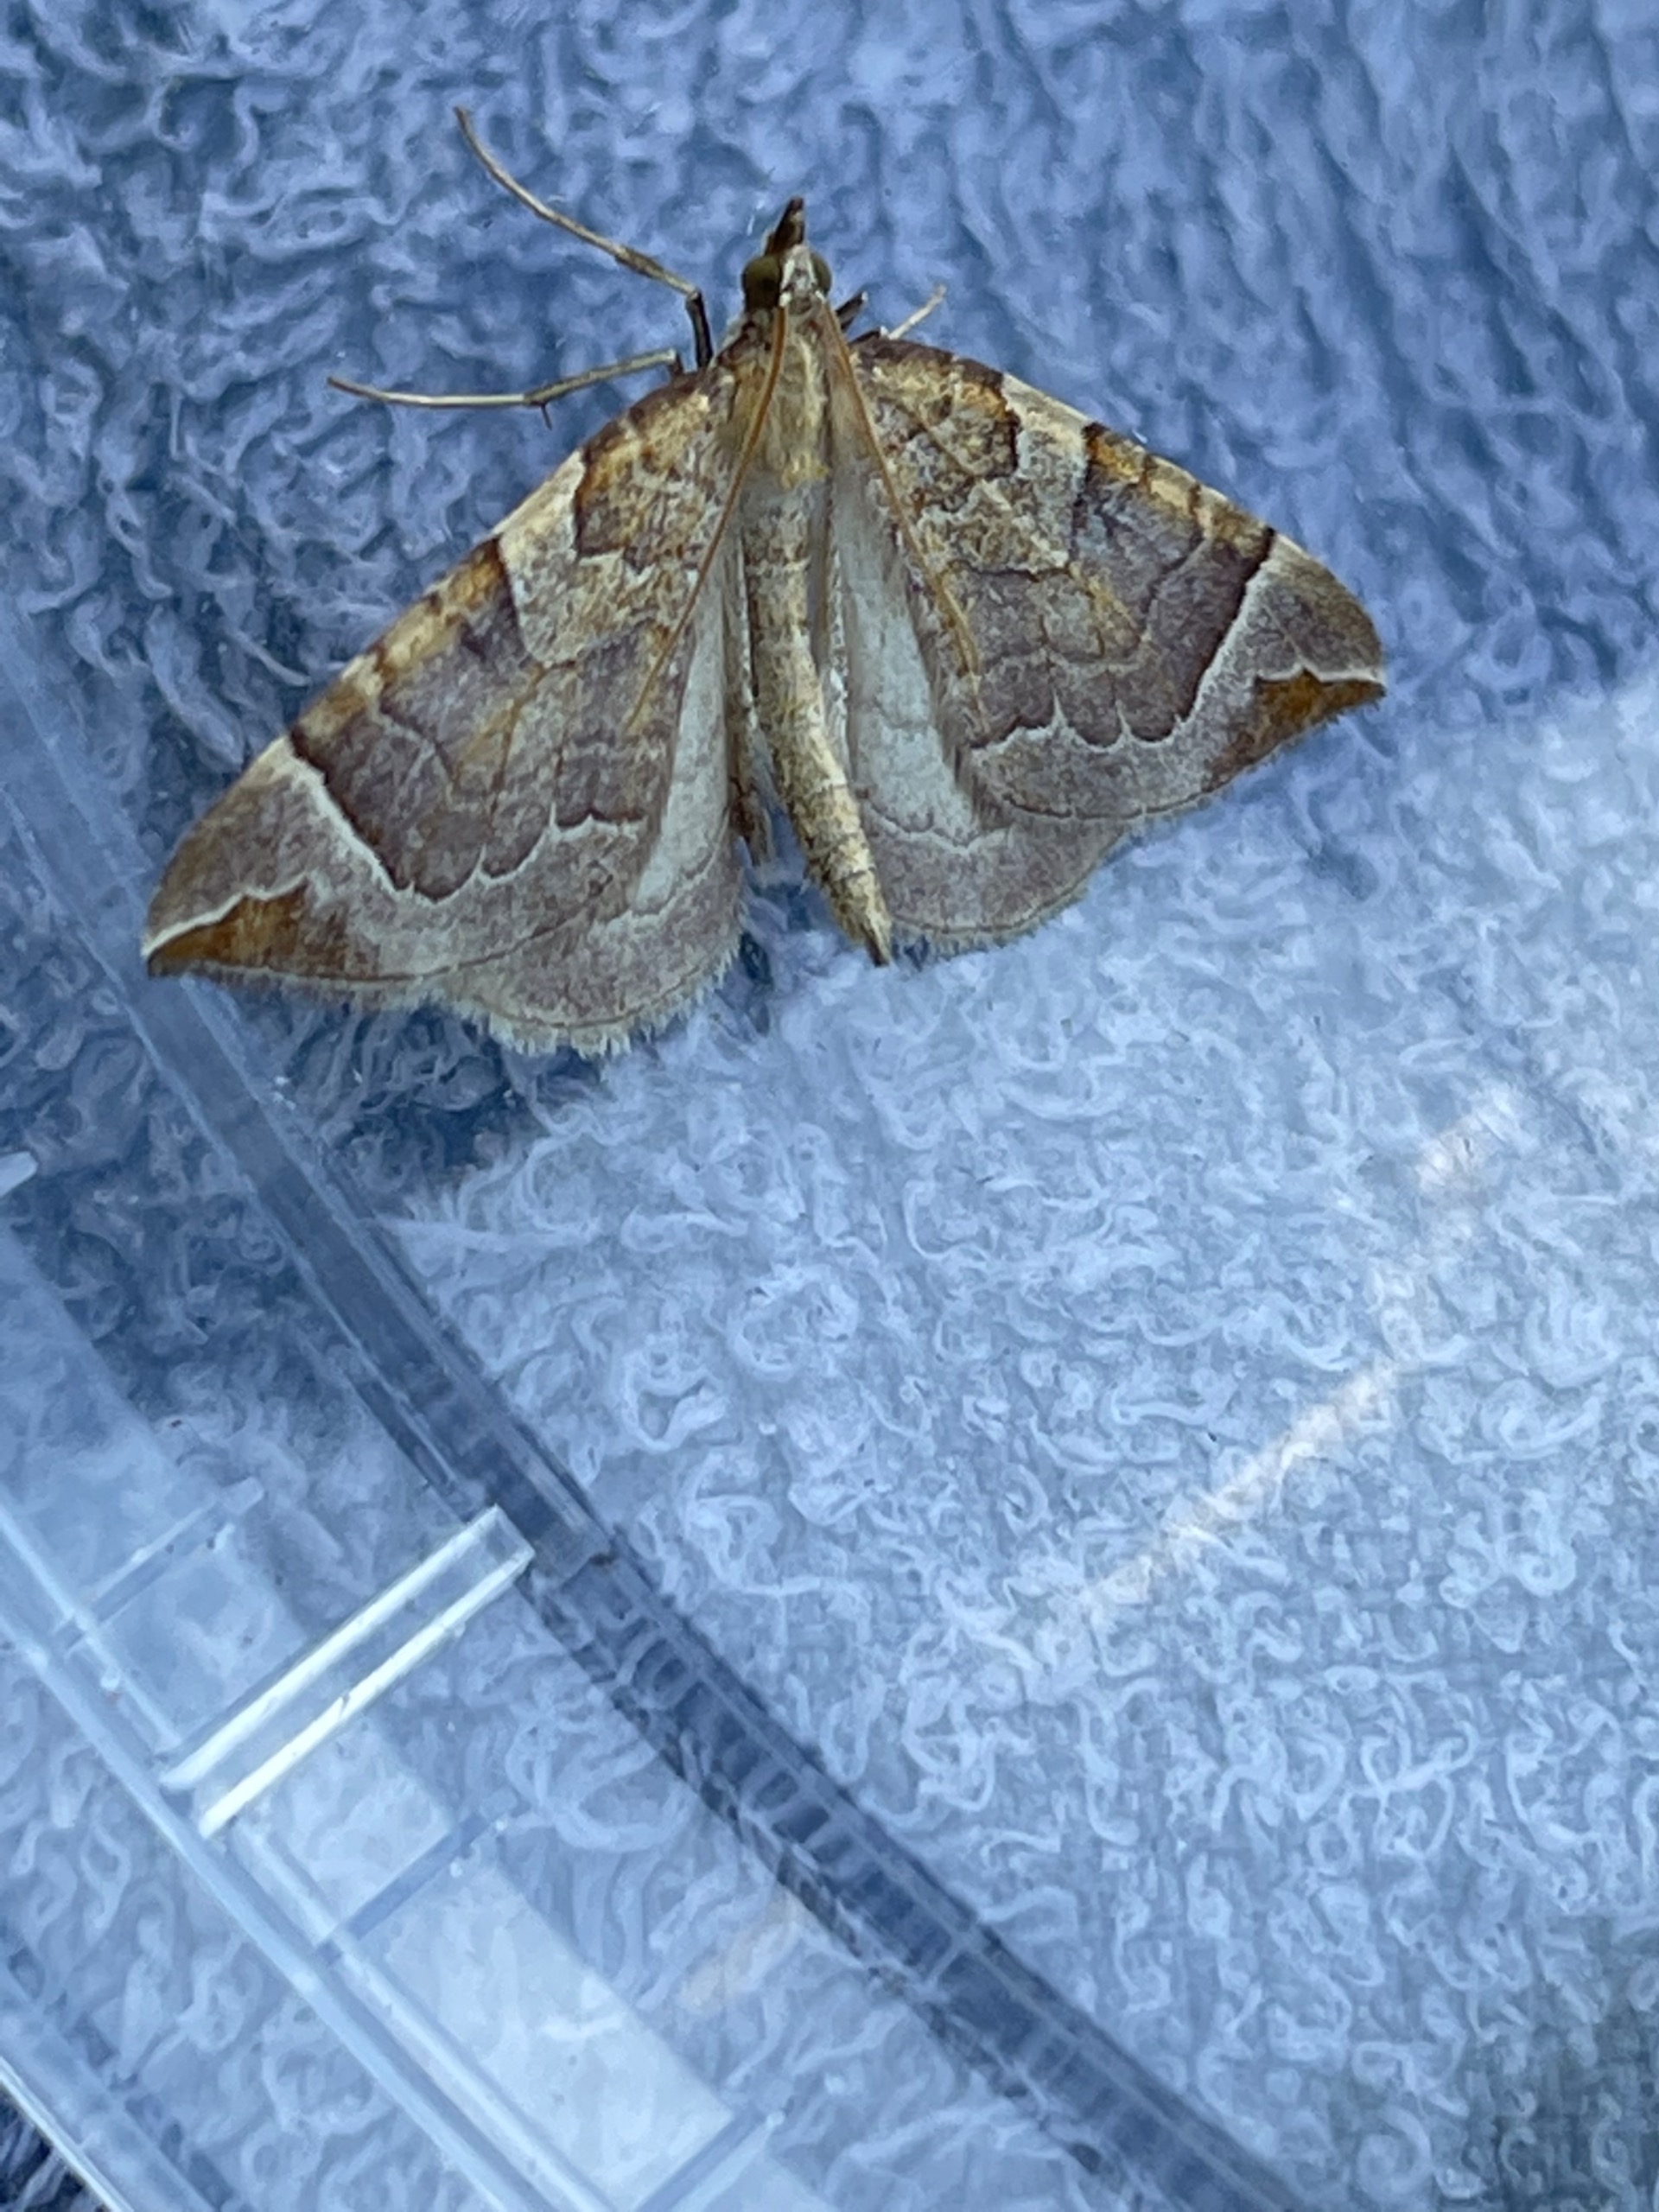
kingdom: Animalia
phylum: Arthropoda
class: Insecta
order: Lepidoptera
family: Geometridae
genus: Eulithis
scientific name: Eulithis testata
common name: Pile-havemåler
